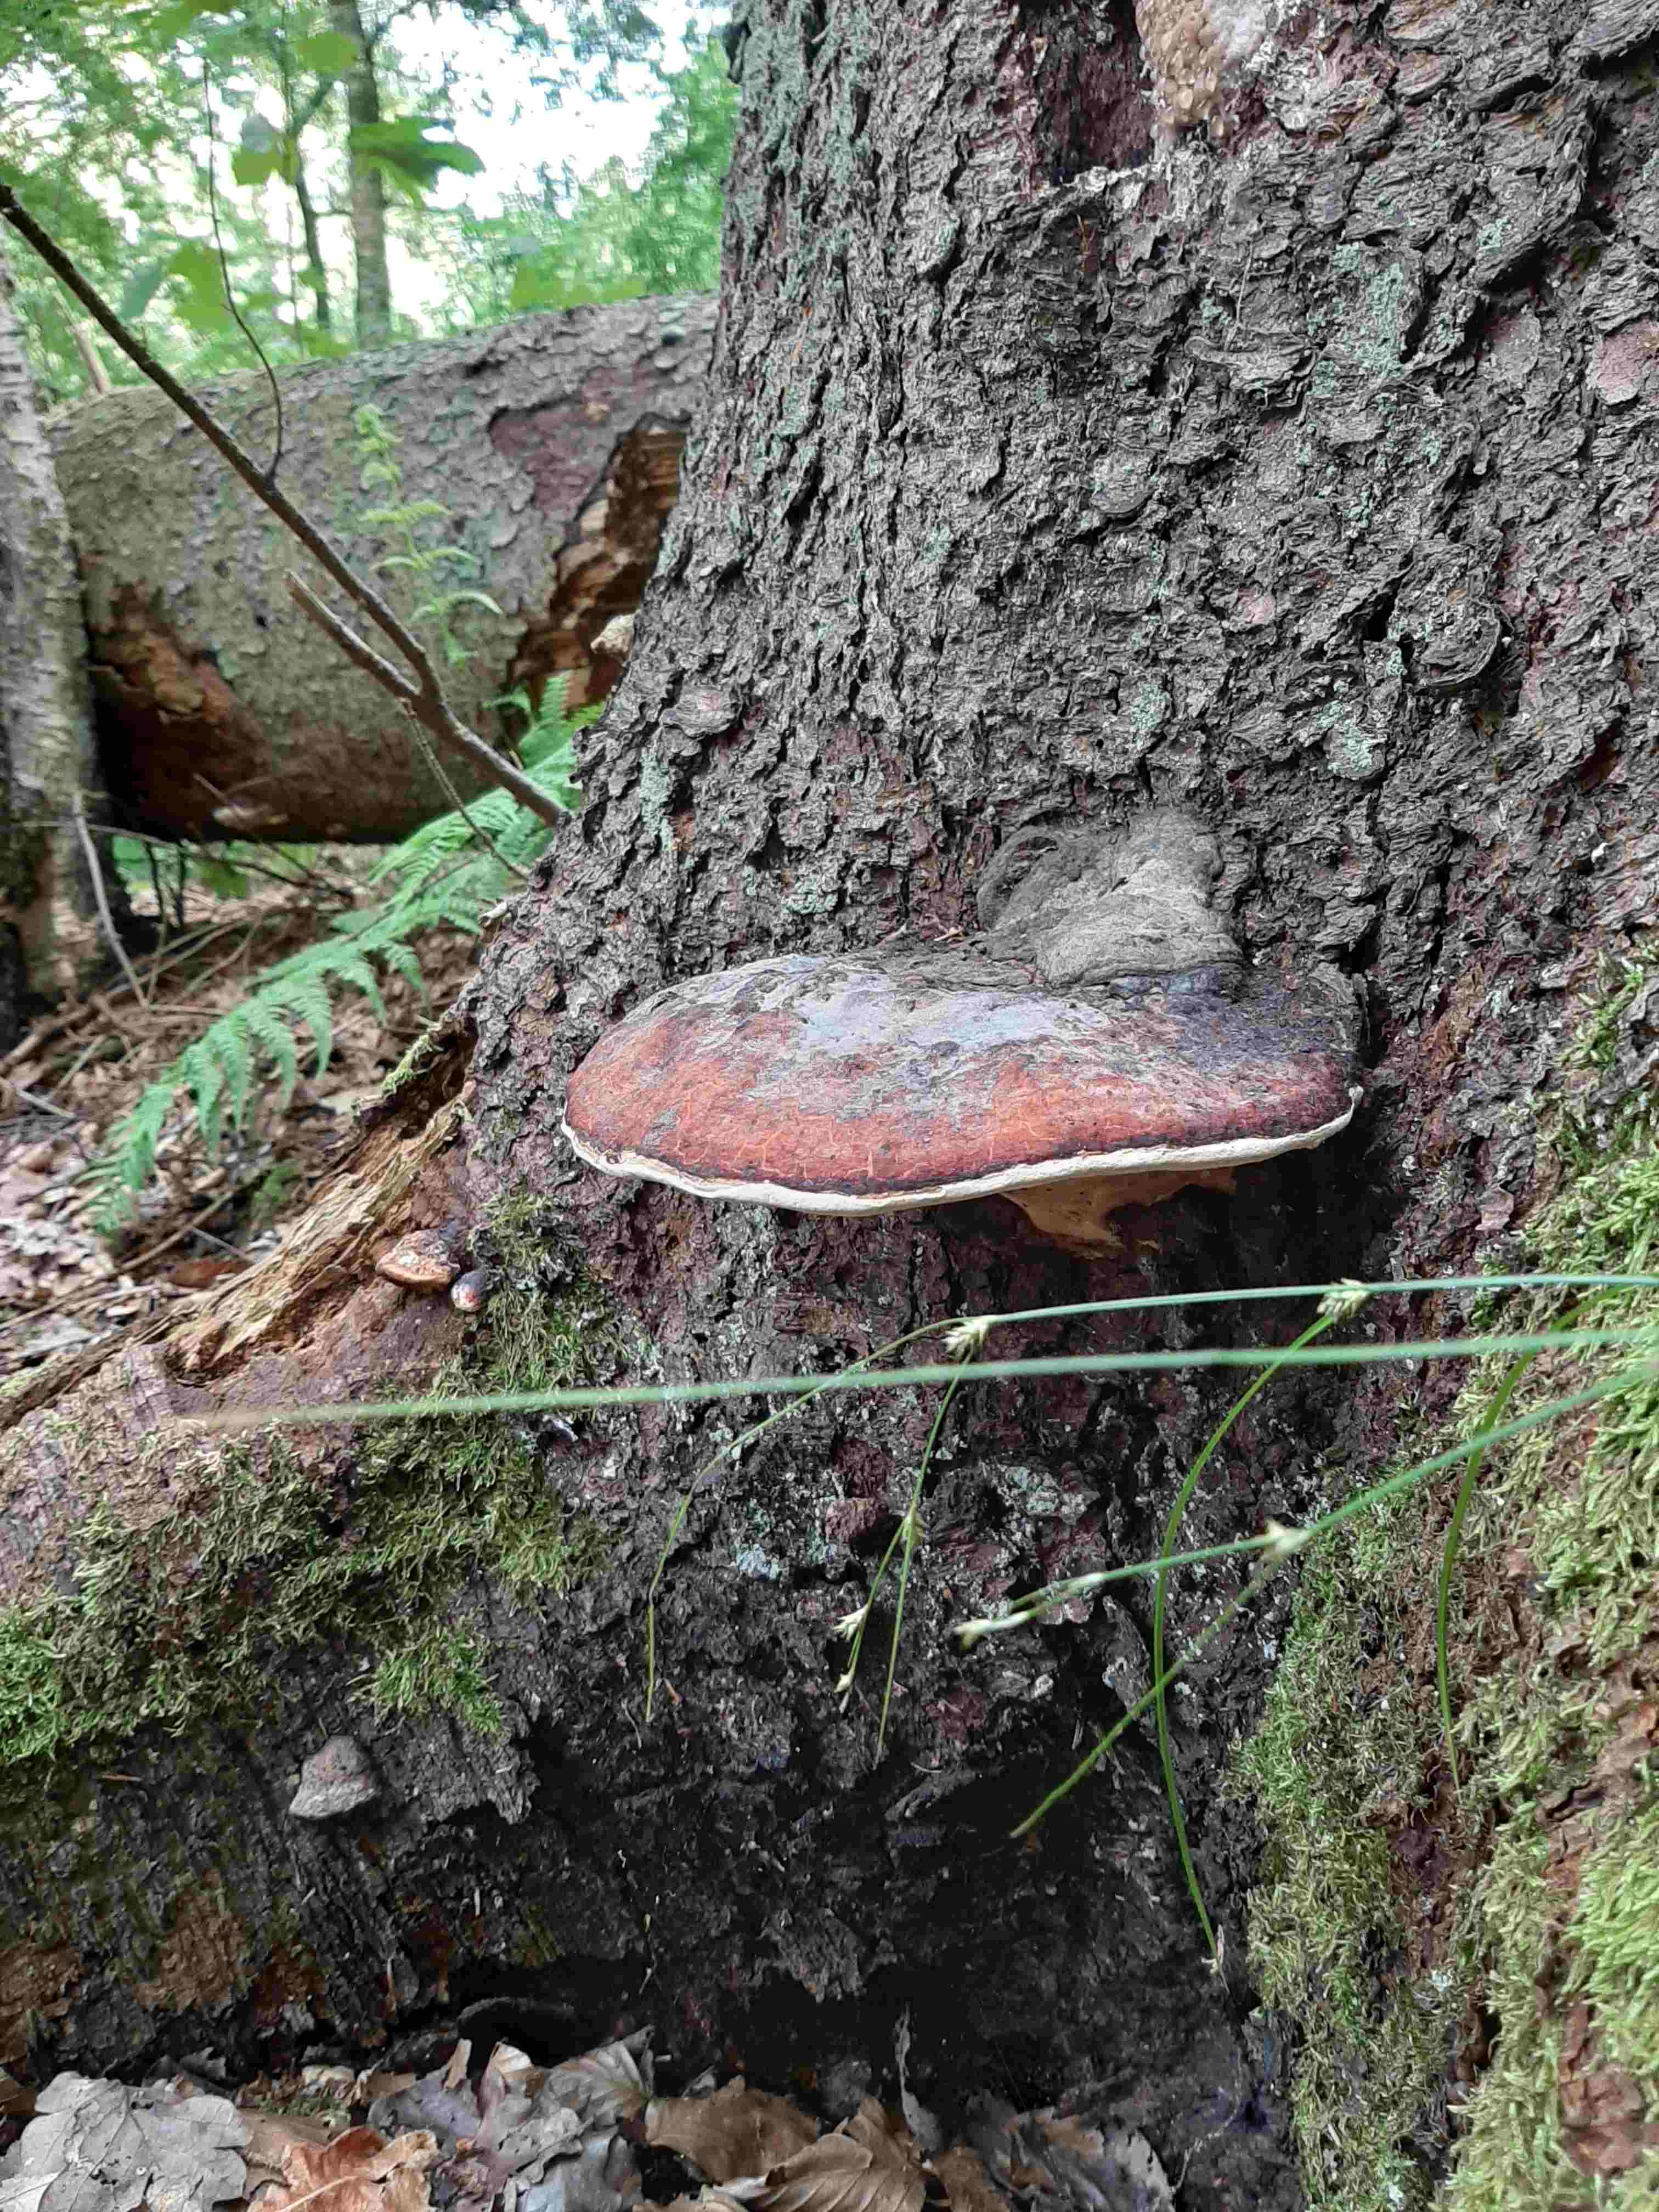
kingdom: Fungi
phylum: Basidiomycota
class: Agaricomycetes
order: Polyporales
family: Fomitopsidaceae
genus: Fomitopsis
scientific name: Fomitopsis pinicola
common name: randbæltet hovporesvamp
